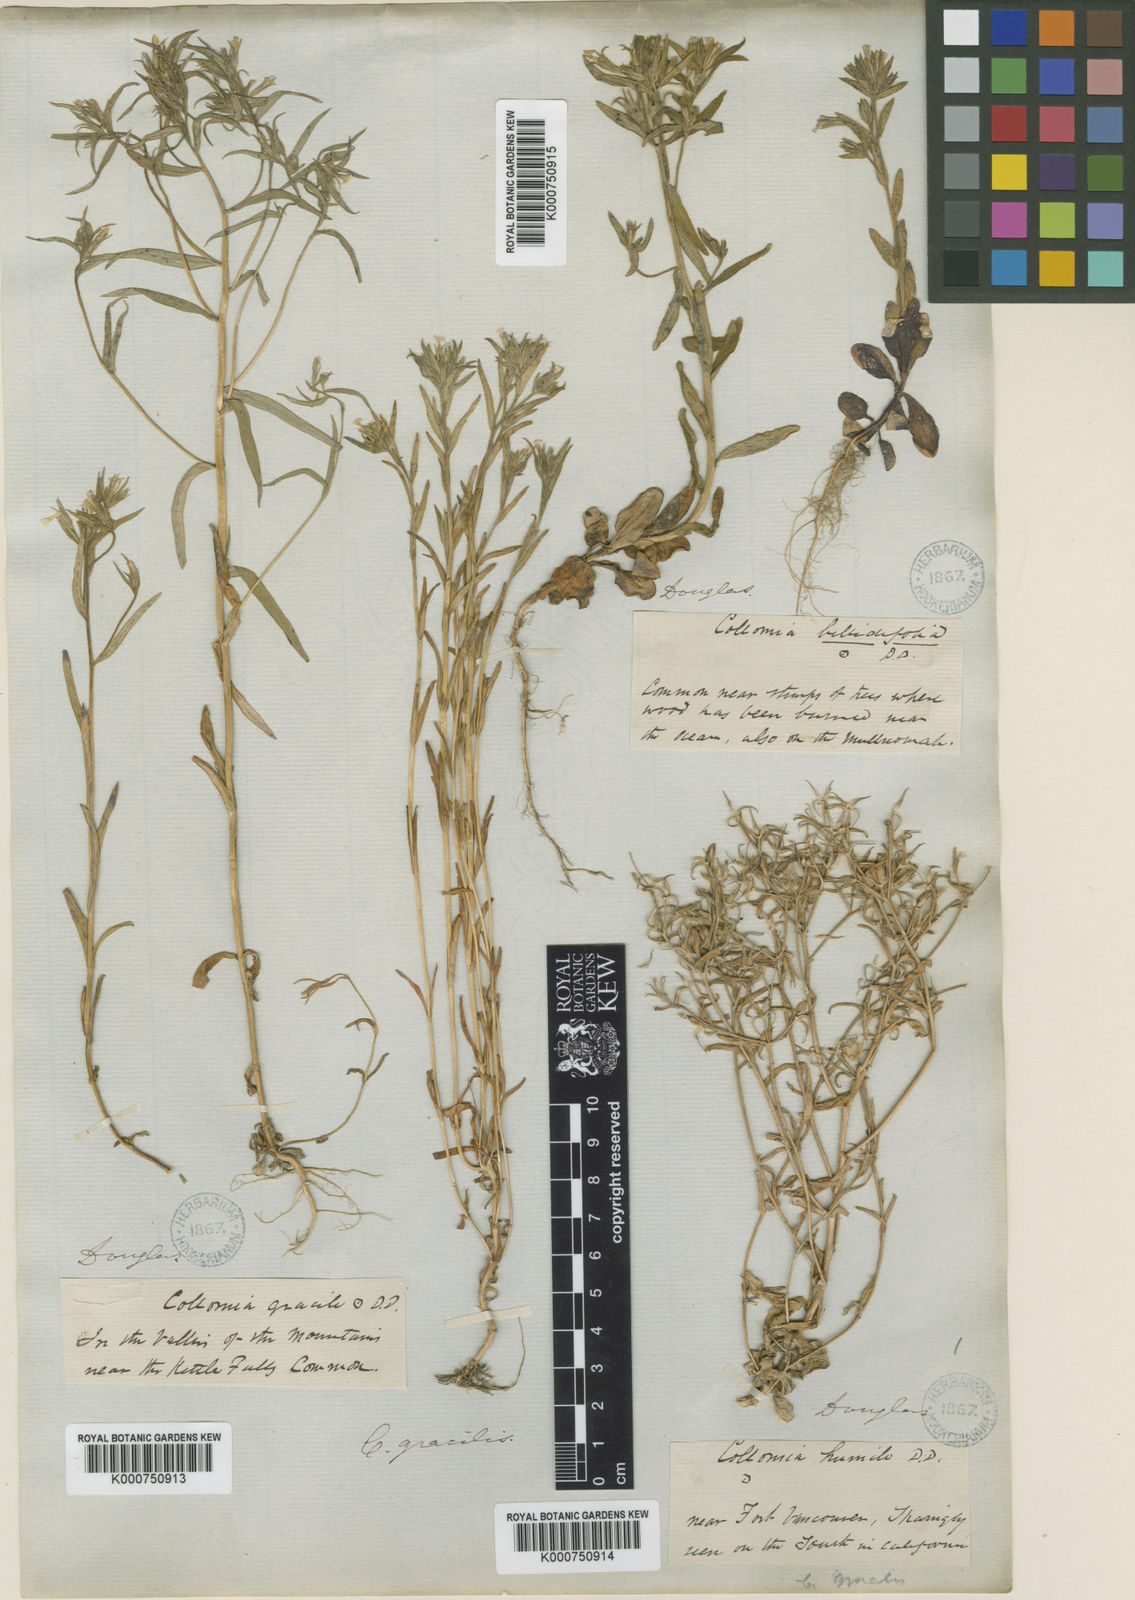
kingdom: Plantae
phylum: Tracheophyta
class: Magnoliopsida
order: Ericales
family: Polemoniaceae
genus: Phlox
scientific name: Phlox gracilis
